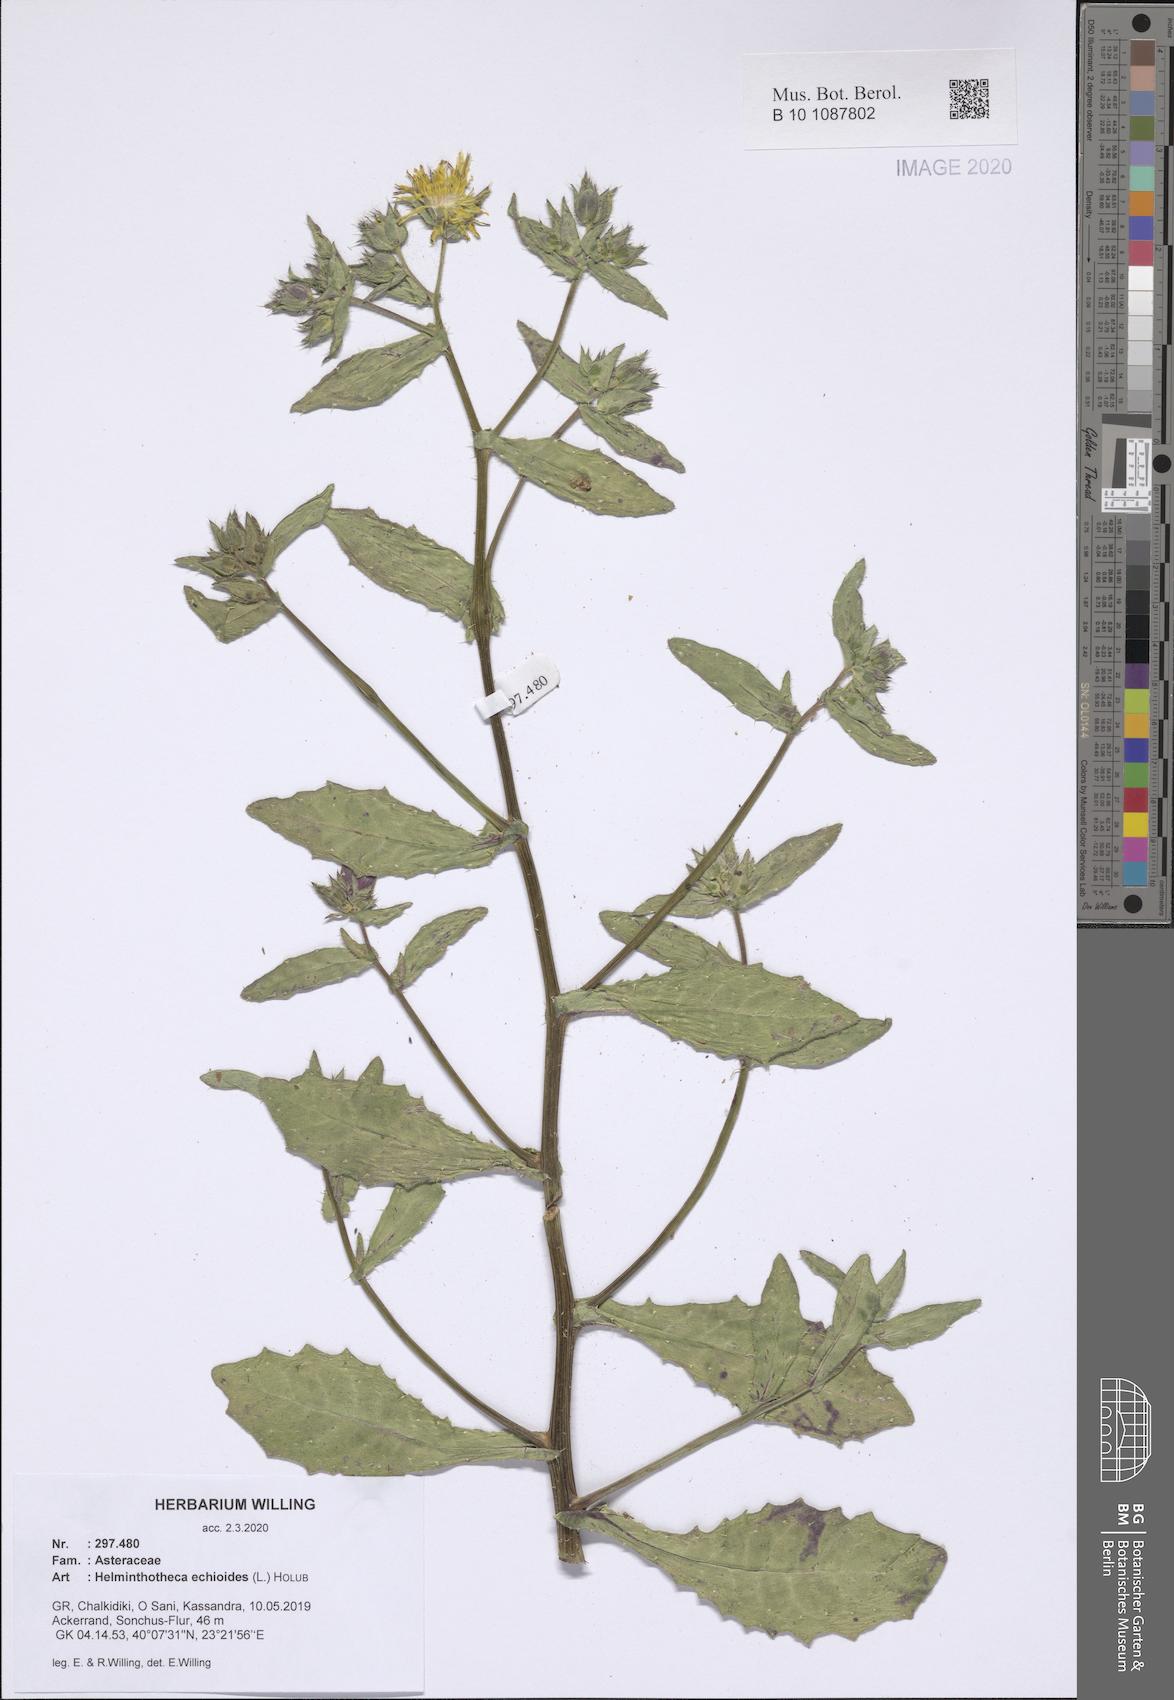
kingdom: Plantae
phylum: Tracheophyta
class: Magnoliopsida
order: Asterales
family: Asteraceae
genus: Helminthotheca
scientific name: Helminthotheca echioides
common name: Ox-tongue
